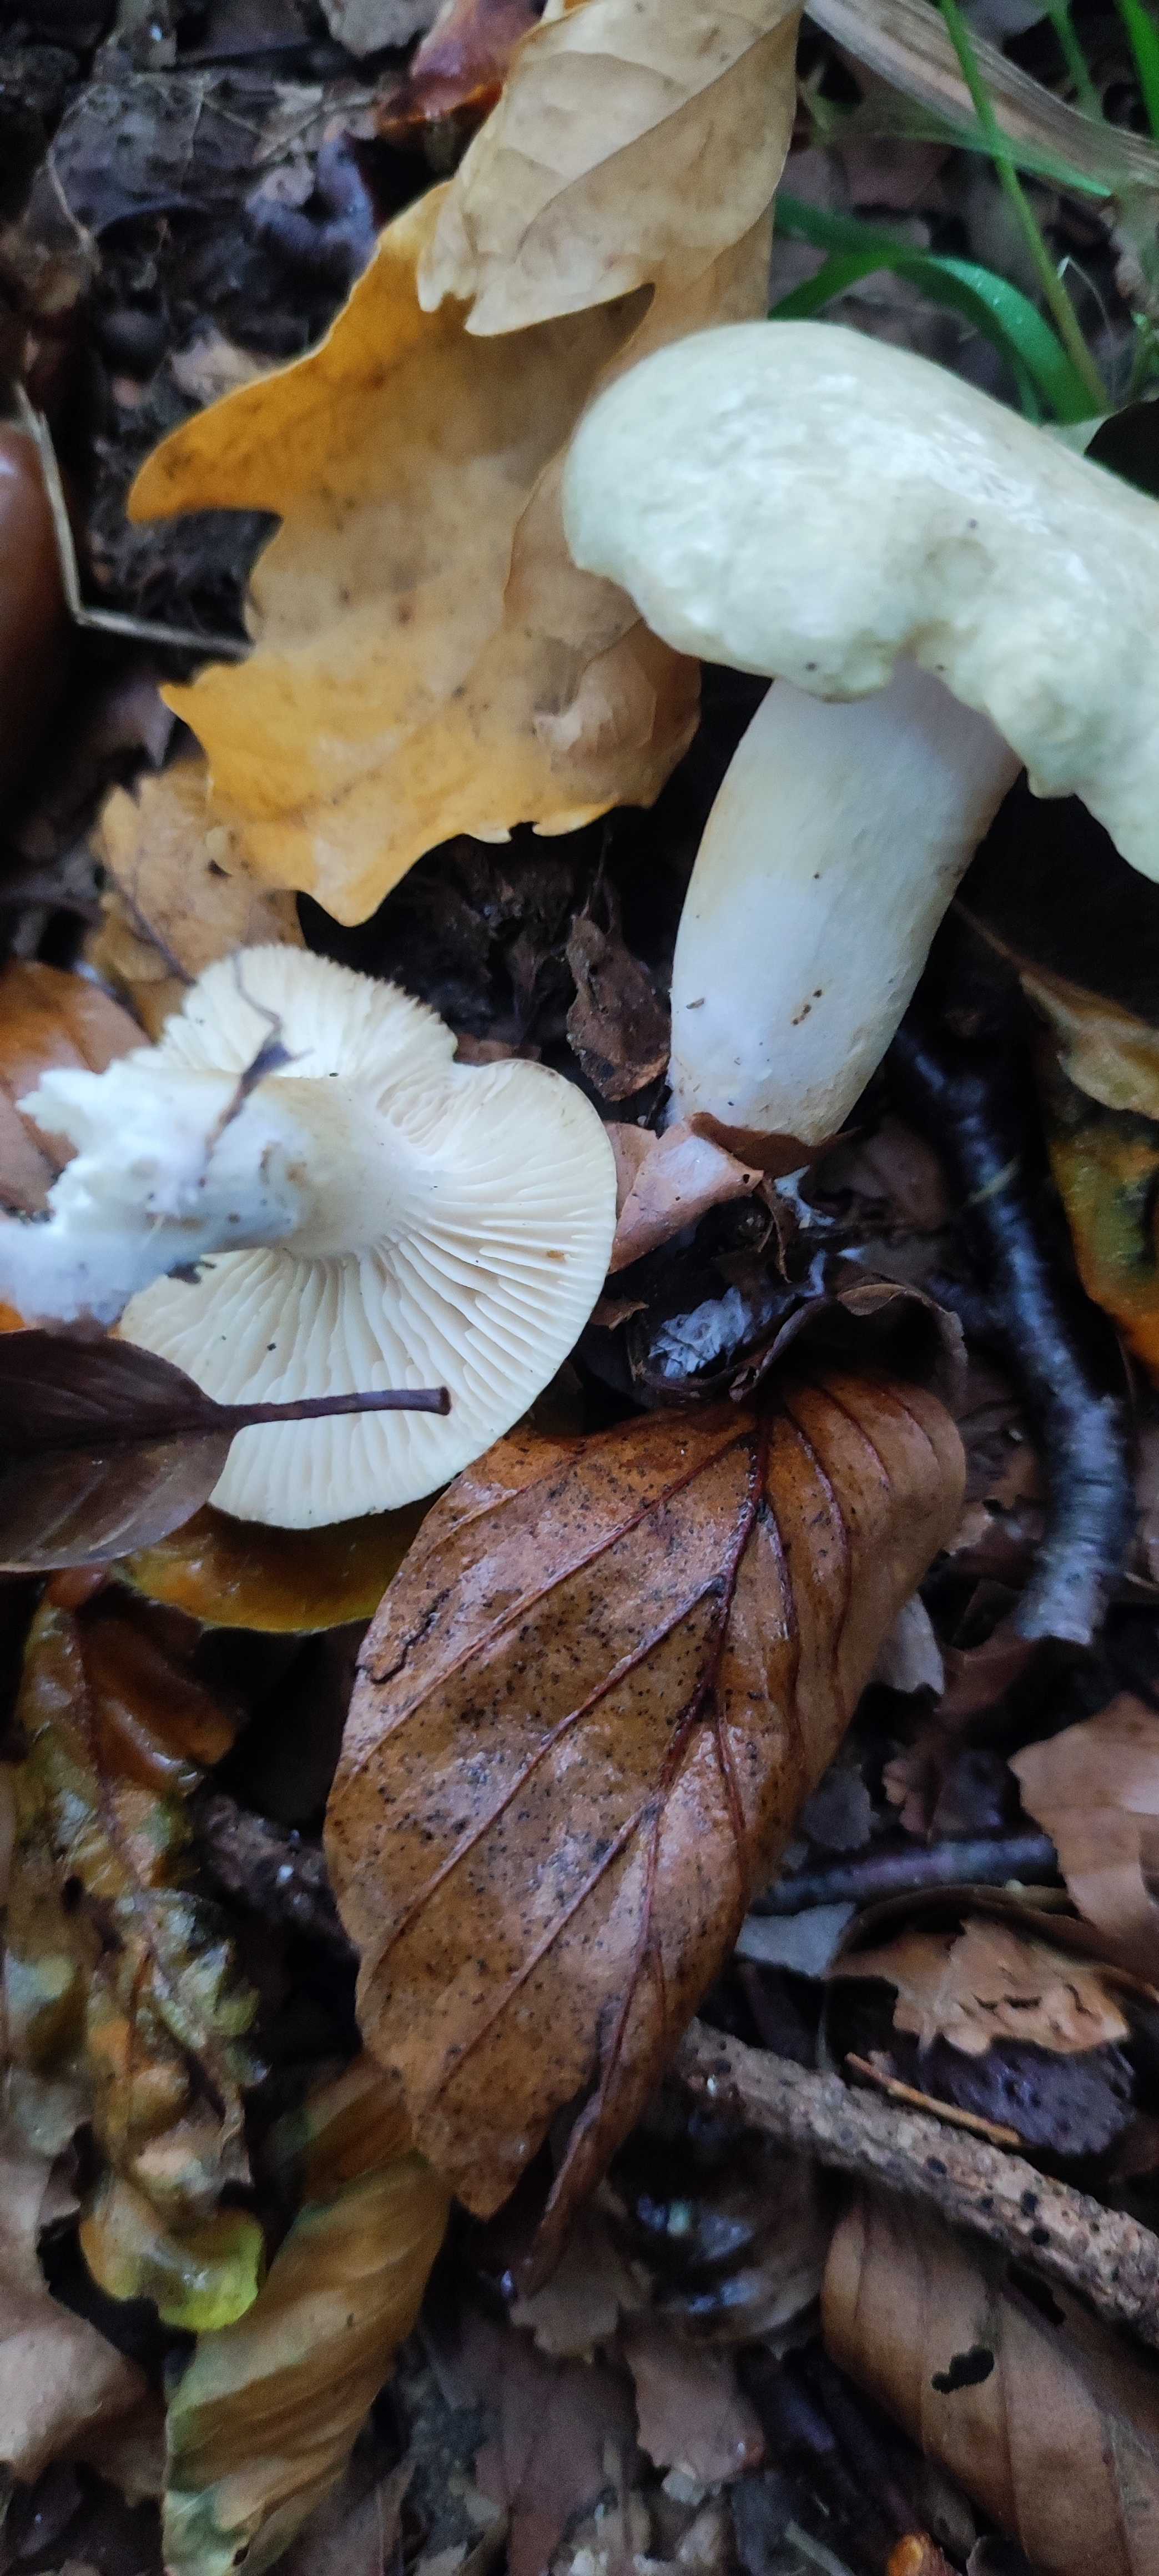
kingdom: Fungi
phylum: Basidiomycota
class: Agaricomycetes
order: Agaricales
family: Tricholomataceae
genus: Tricholoma
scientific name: Tricholoma lascivum
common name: stinkende ridderhat
